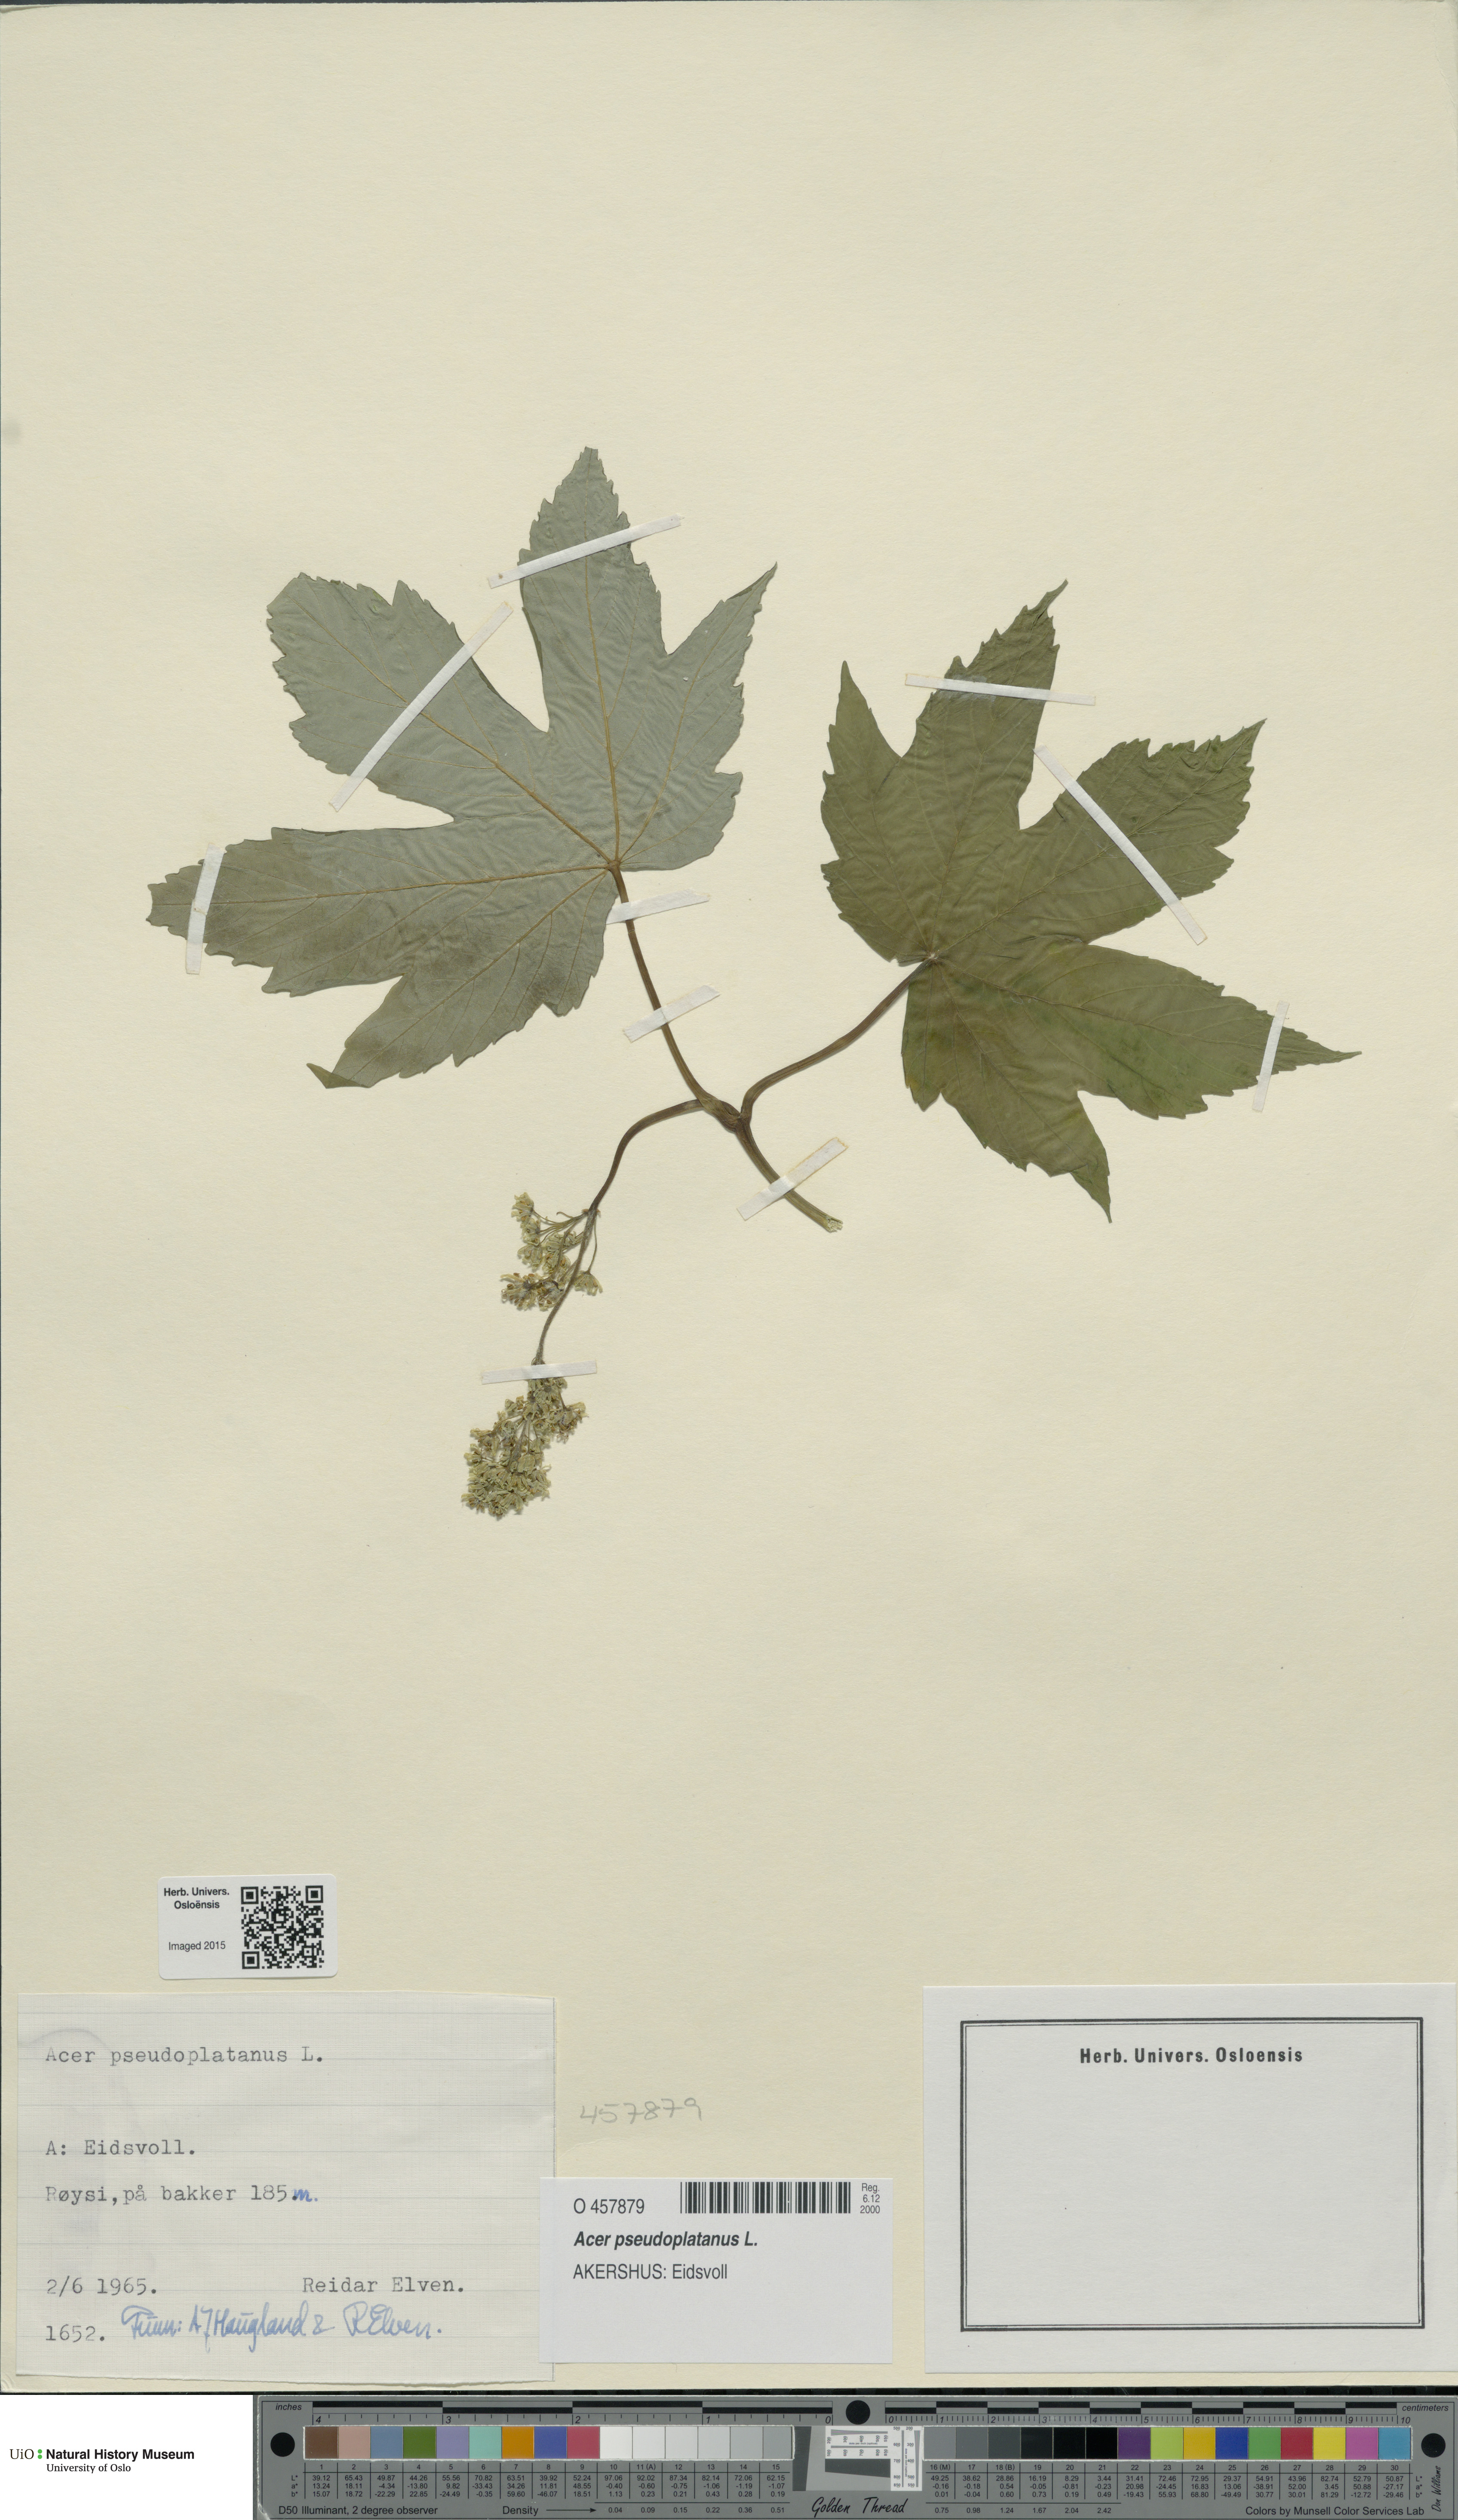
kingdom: Plantae
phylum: Tracheophyta
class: Magnoliopsida
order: Sapindales
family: Sapindaceae
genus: Acer
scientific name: Acer pseudoplatanus
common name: Sycamore
